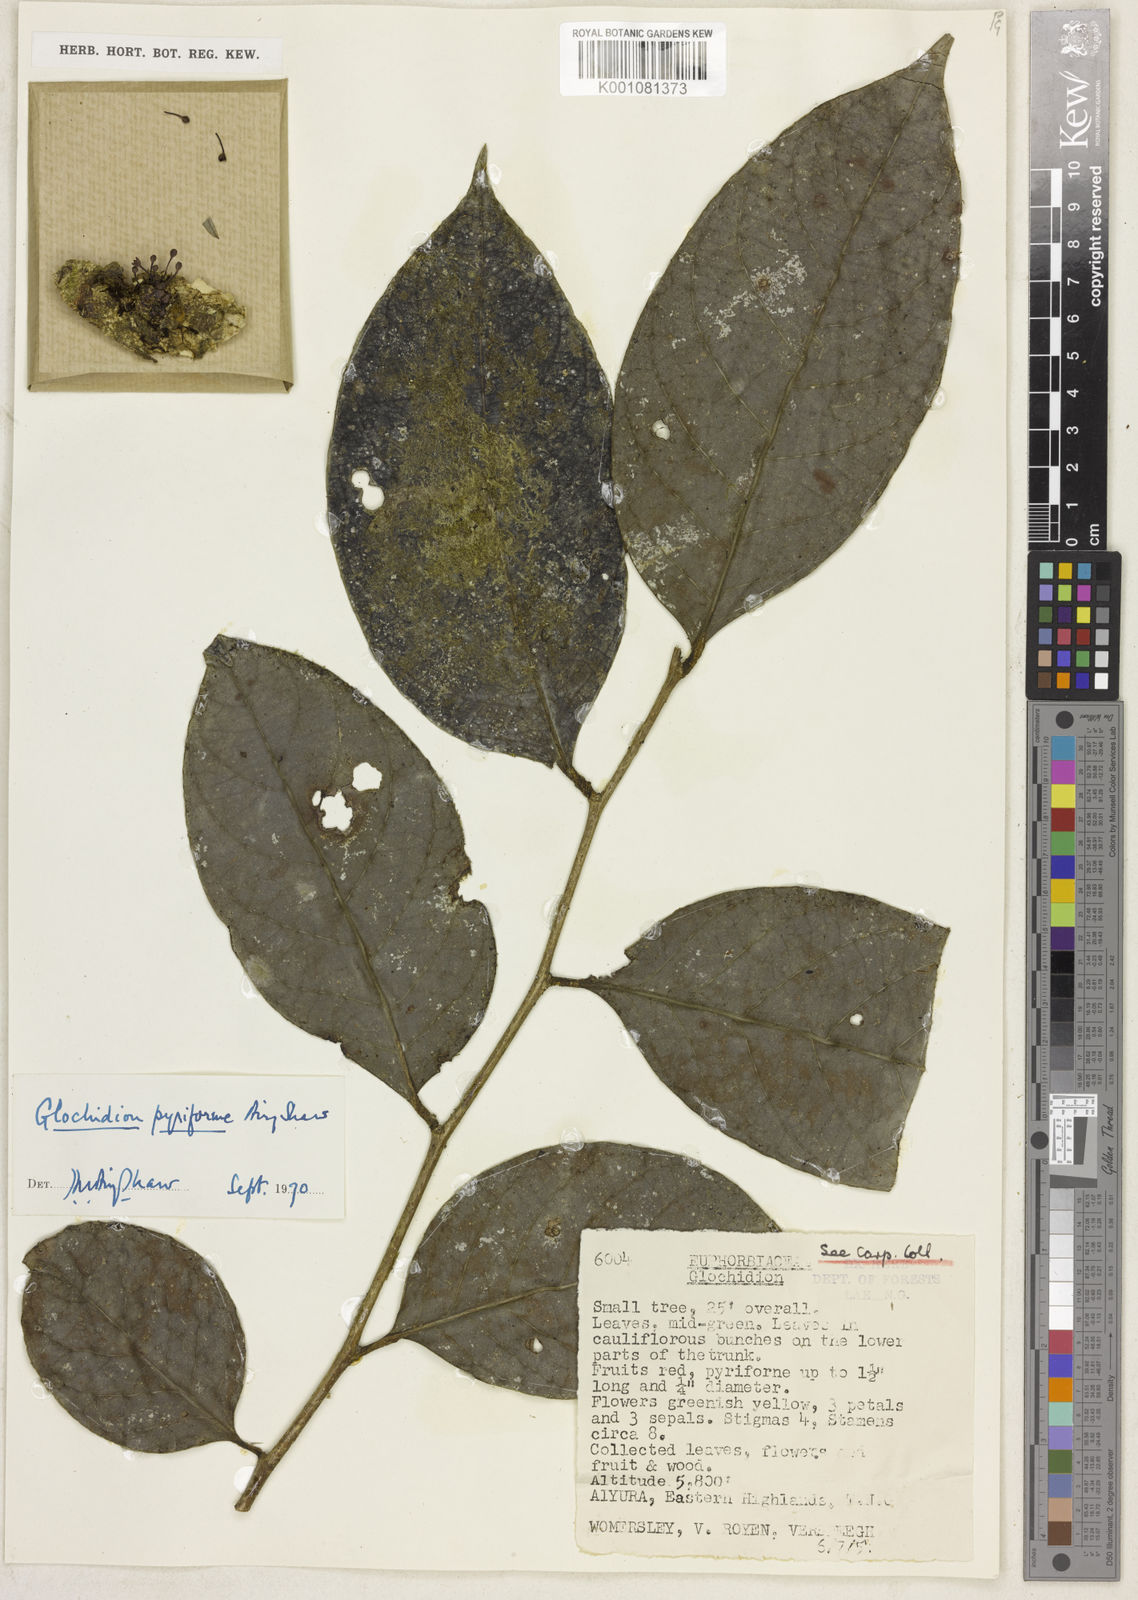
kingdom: Plantae
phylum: Tracheophyta
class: Magnoliopsida
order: Malpighiales
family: Phyllanthaceae
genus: Glochidion
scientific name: Glochidion pyriforme
